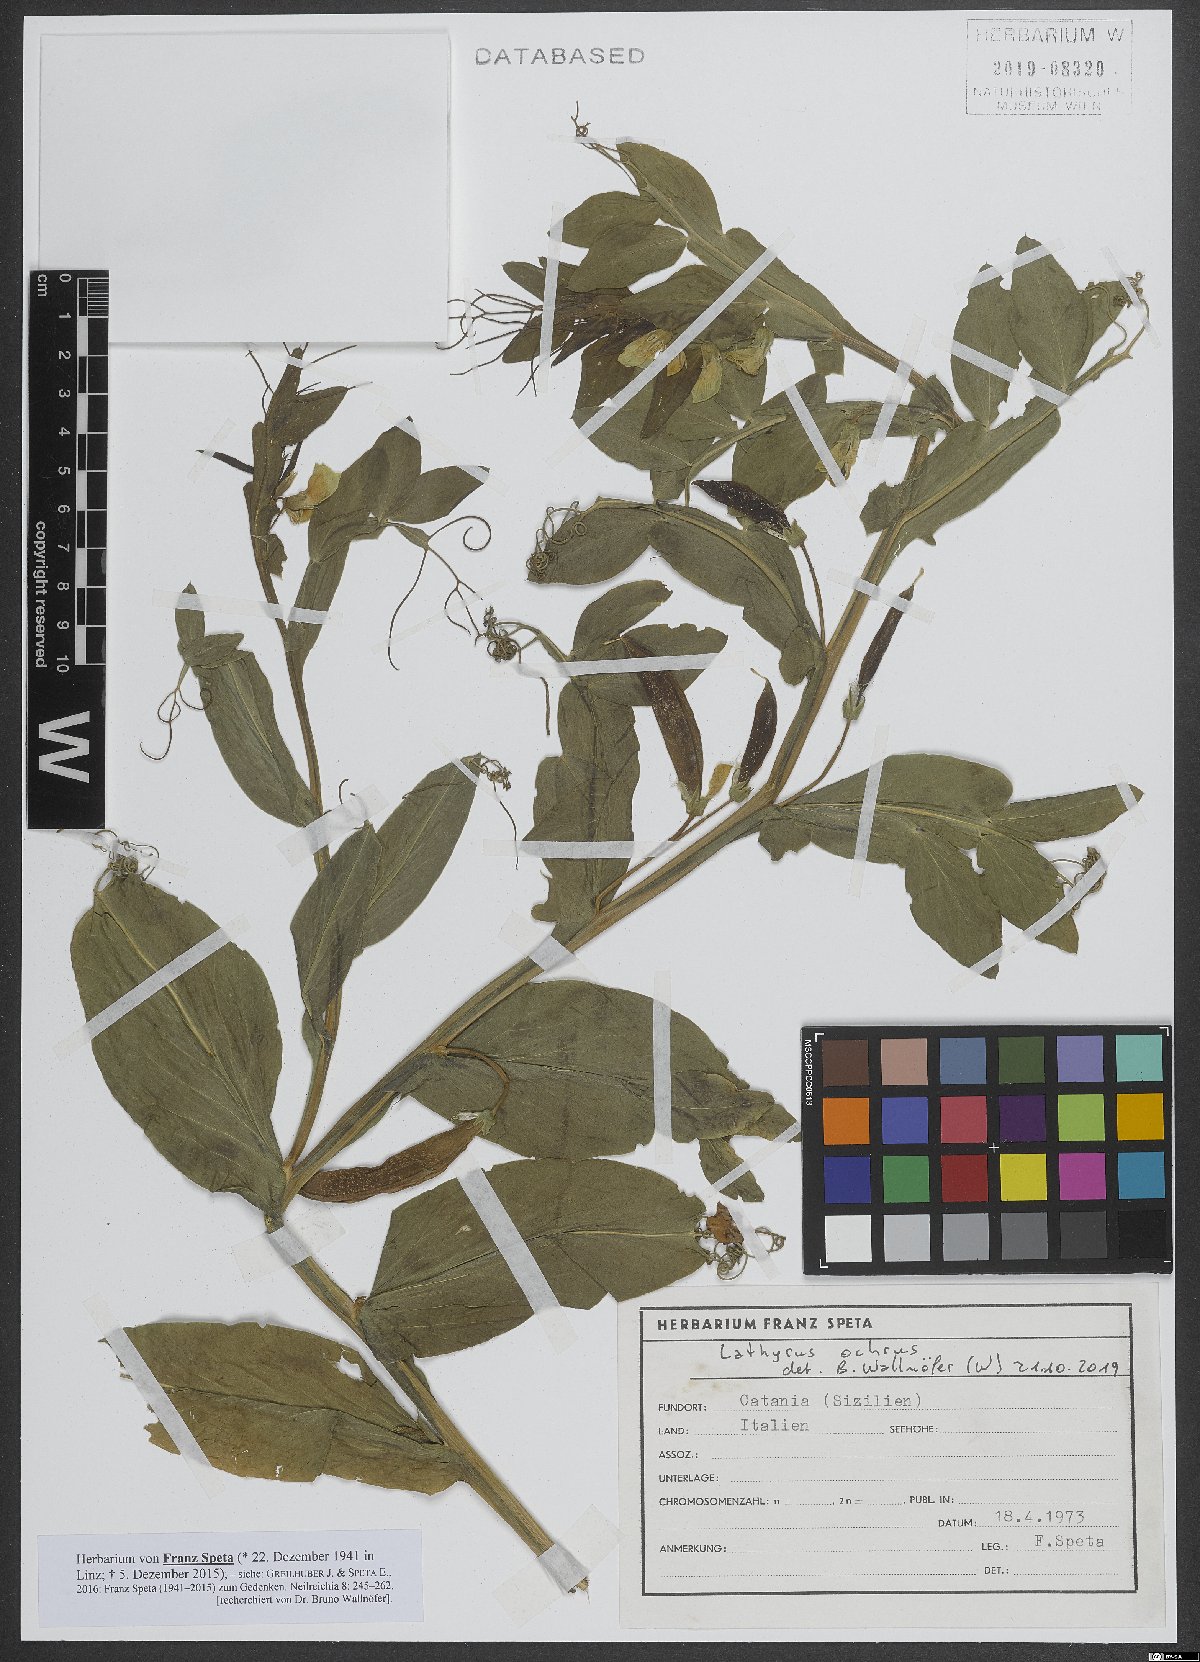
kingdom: Plantae
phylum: Tracheophyta
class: Magnoliopsida
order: Fabales
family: Fabaceae
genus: Lathyrus
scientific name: Lathyrus ochrus
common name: Winged vetchling
